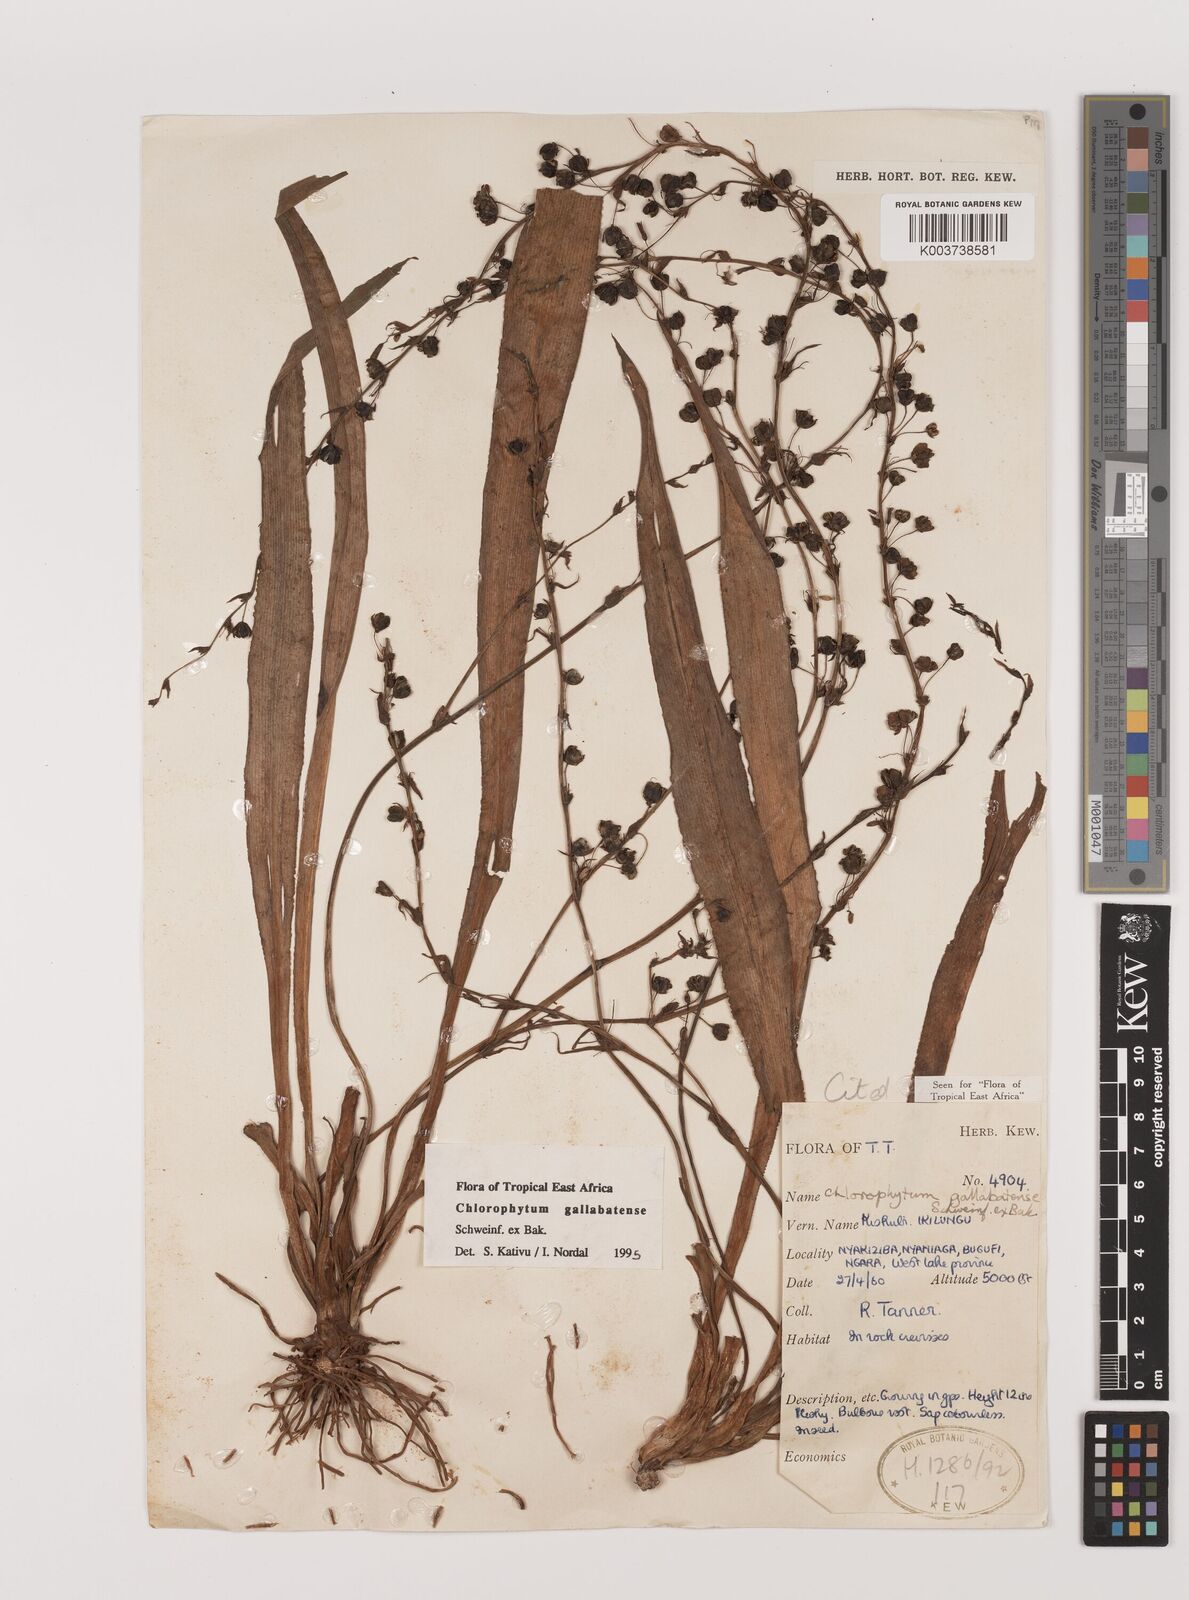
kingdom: Plantae
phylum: Tracheophyta
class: Liliopsida
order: Asparagales
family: Asparagaceae
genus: Chlorophytum
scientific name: Chlorophytum gallabatense
